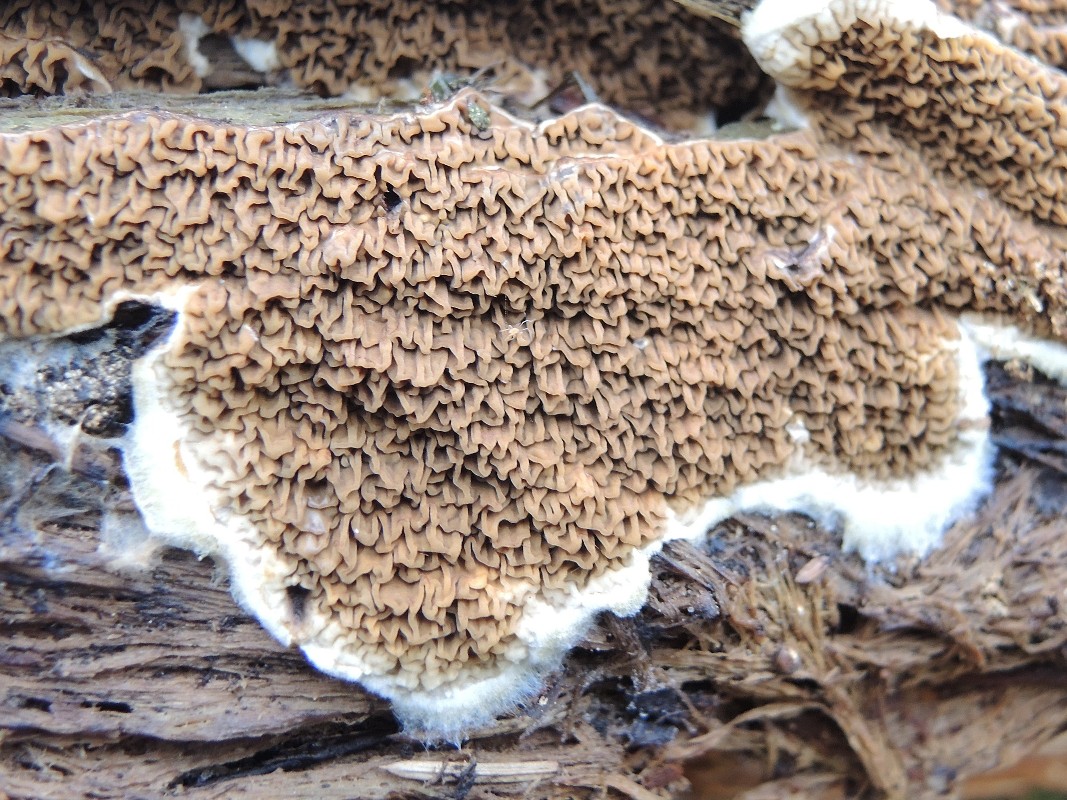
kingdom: Fungi
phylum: Basidiomycota
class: Agaricomycetes
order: Boletales
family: Serpulaceae
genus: Serpula
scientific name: Serpula himantioides
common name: tyndkødet hussvamp
